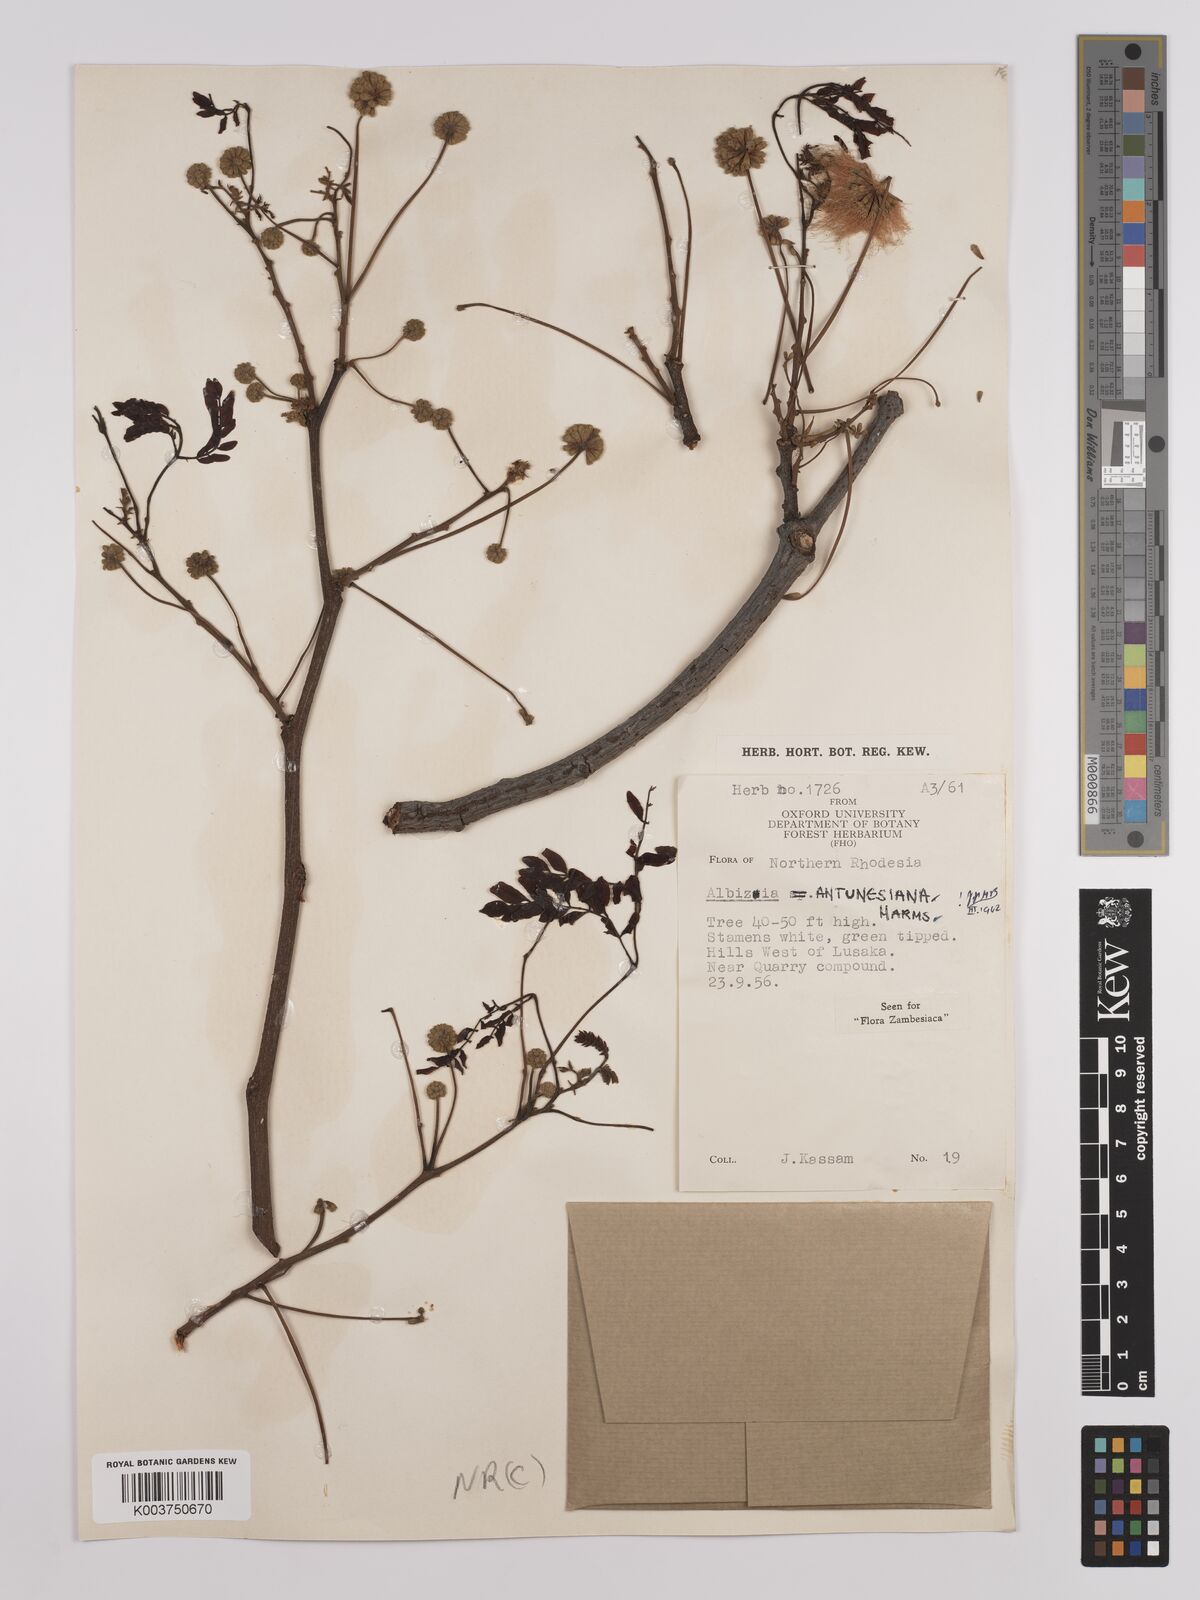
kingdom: Plantae
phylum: Tracheophyta
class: Magnoliopsida
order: Fabales
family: Fabaceae
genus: Albizia
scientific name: Albizia antunesiana
